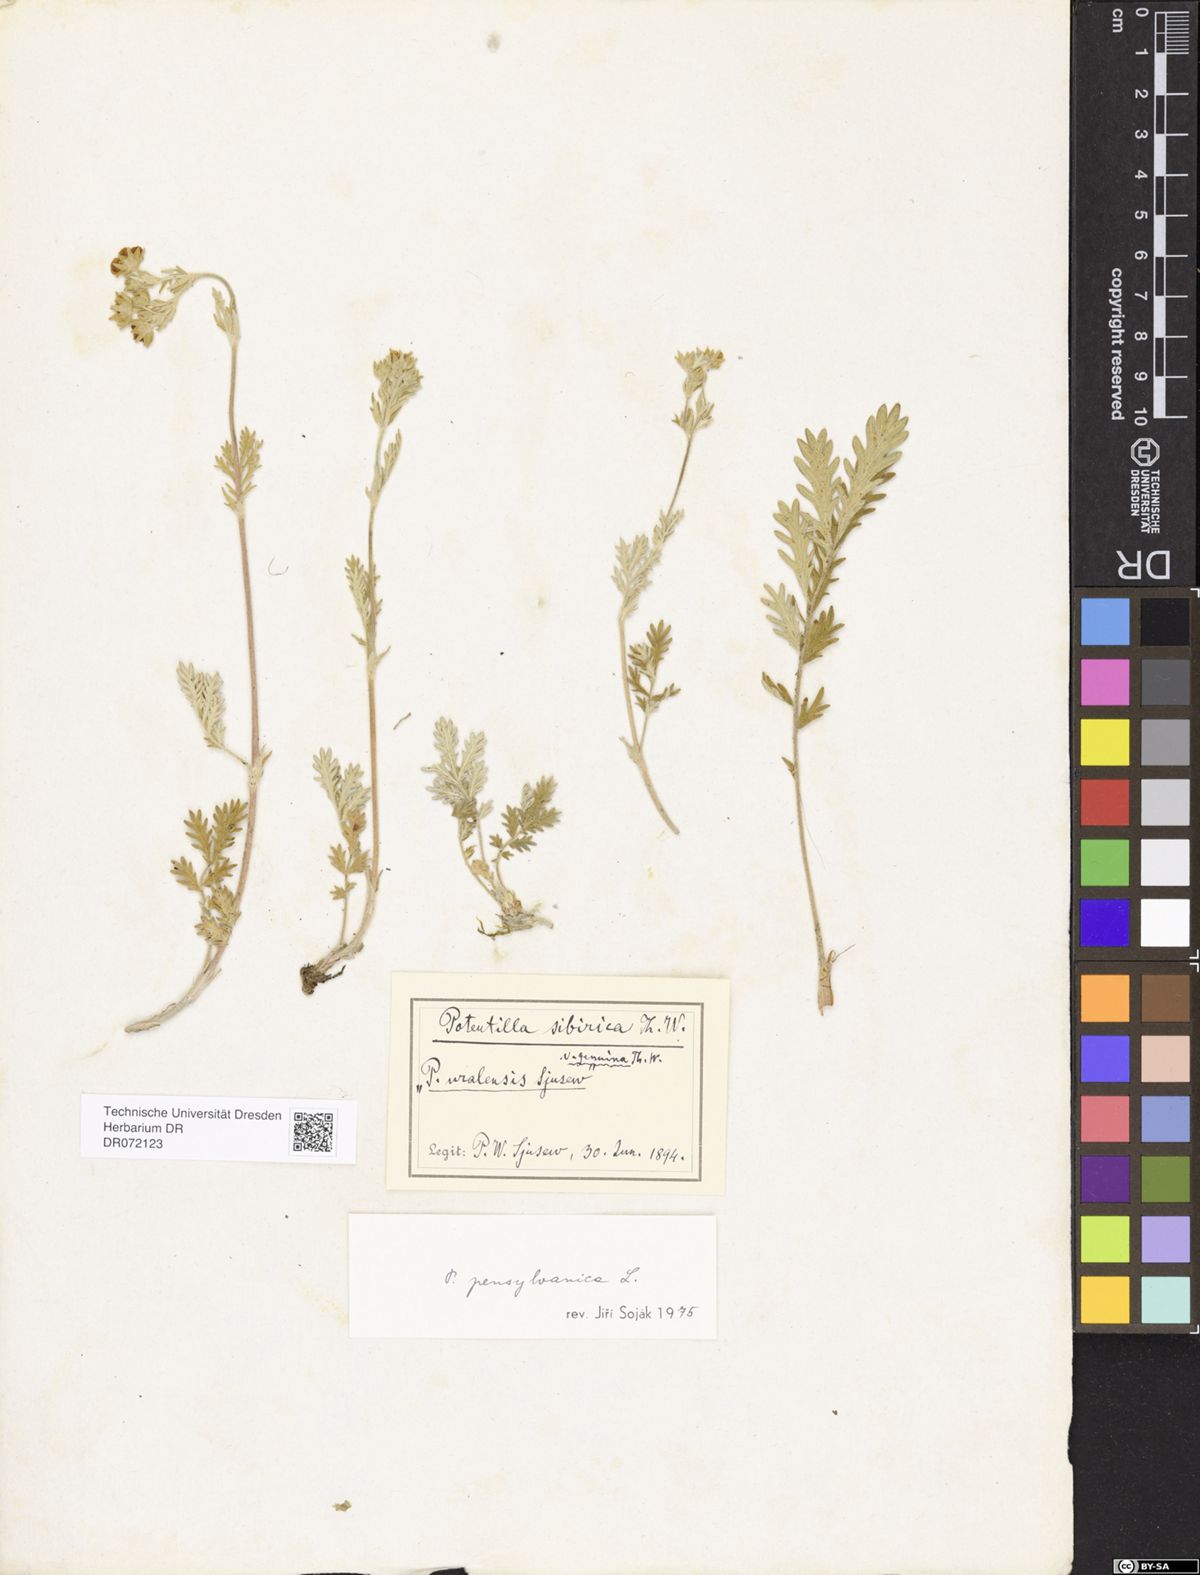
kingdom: Plantae
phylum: Tracheophyta
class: Magnoliopsida
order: Rosales
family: Rosaceae
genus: Potentilla
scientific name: Potentilla pensylvanica
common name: Pennsylvania cinquefoil
